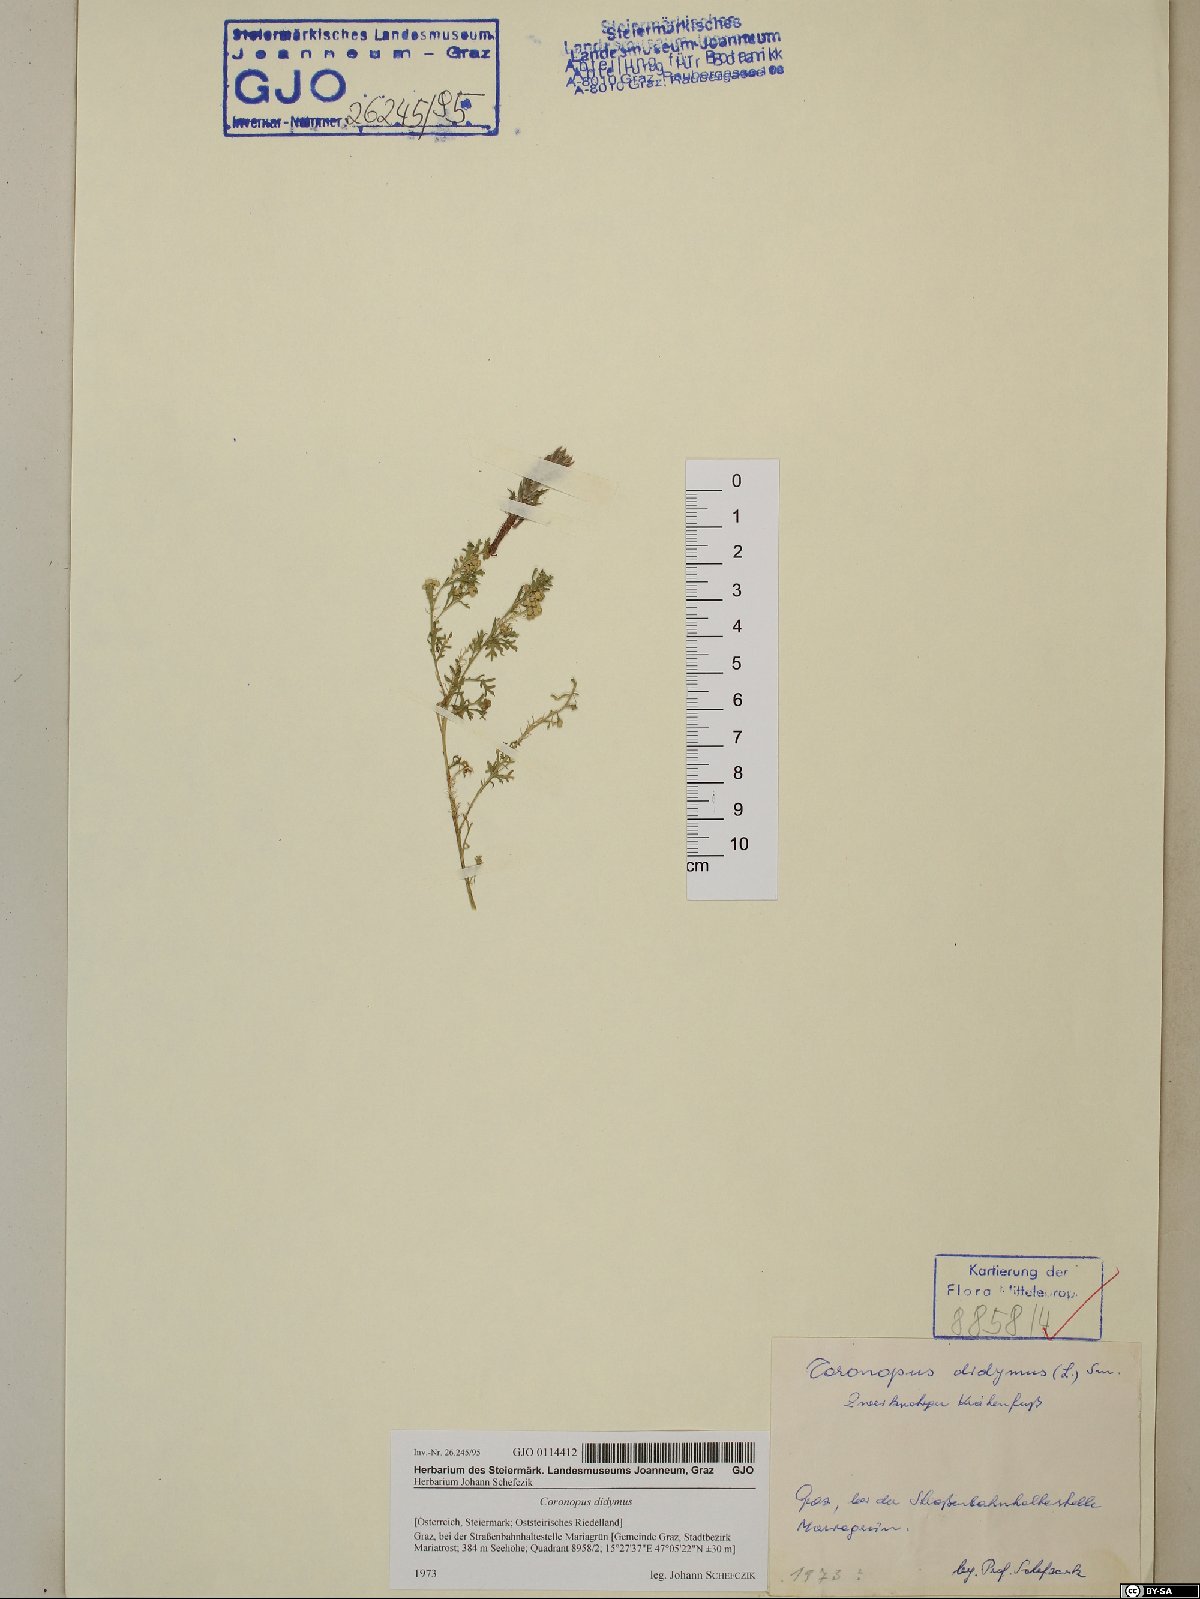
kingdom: Plantae
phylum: Tracheophyta
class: Magnoliopsida
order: Brassicales
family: Brassicaceae
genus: Lepidium
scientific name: Lepidium didymum
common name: Lesser swinecress
